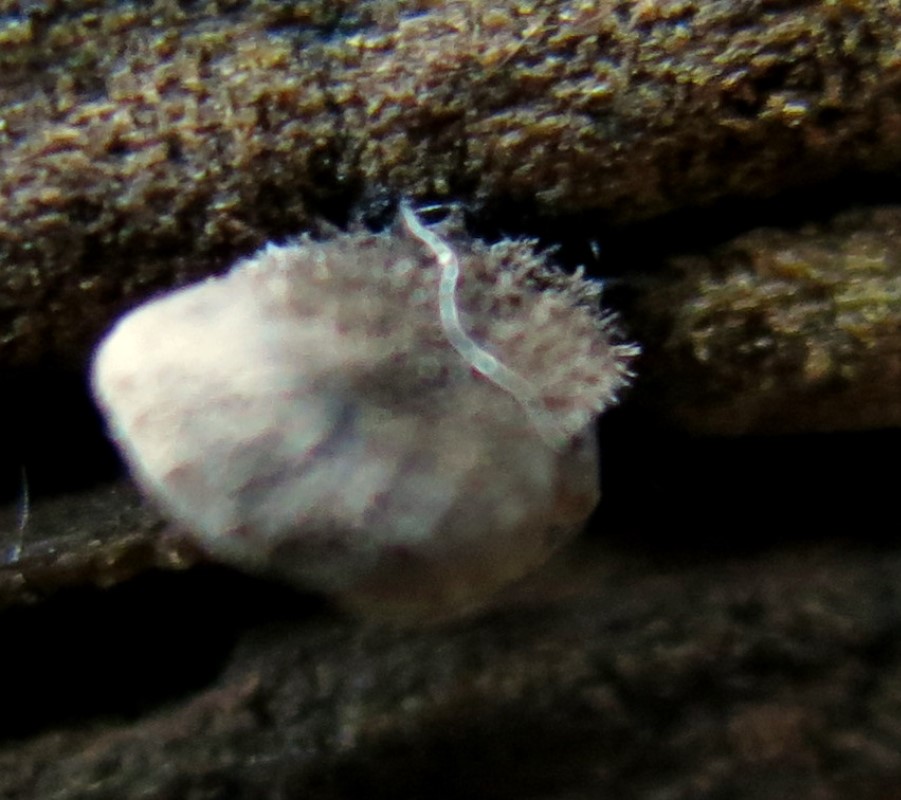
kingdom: Fungi
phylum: Basidiomycota
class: Agaricomycetes
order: Agaricales
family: Pleurotaceae
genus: Resupinatus
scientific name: Resupinatus applicatus
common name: lysfiltet barkhat
